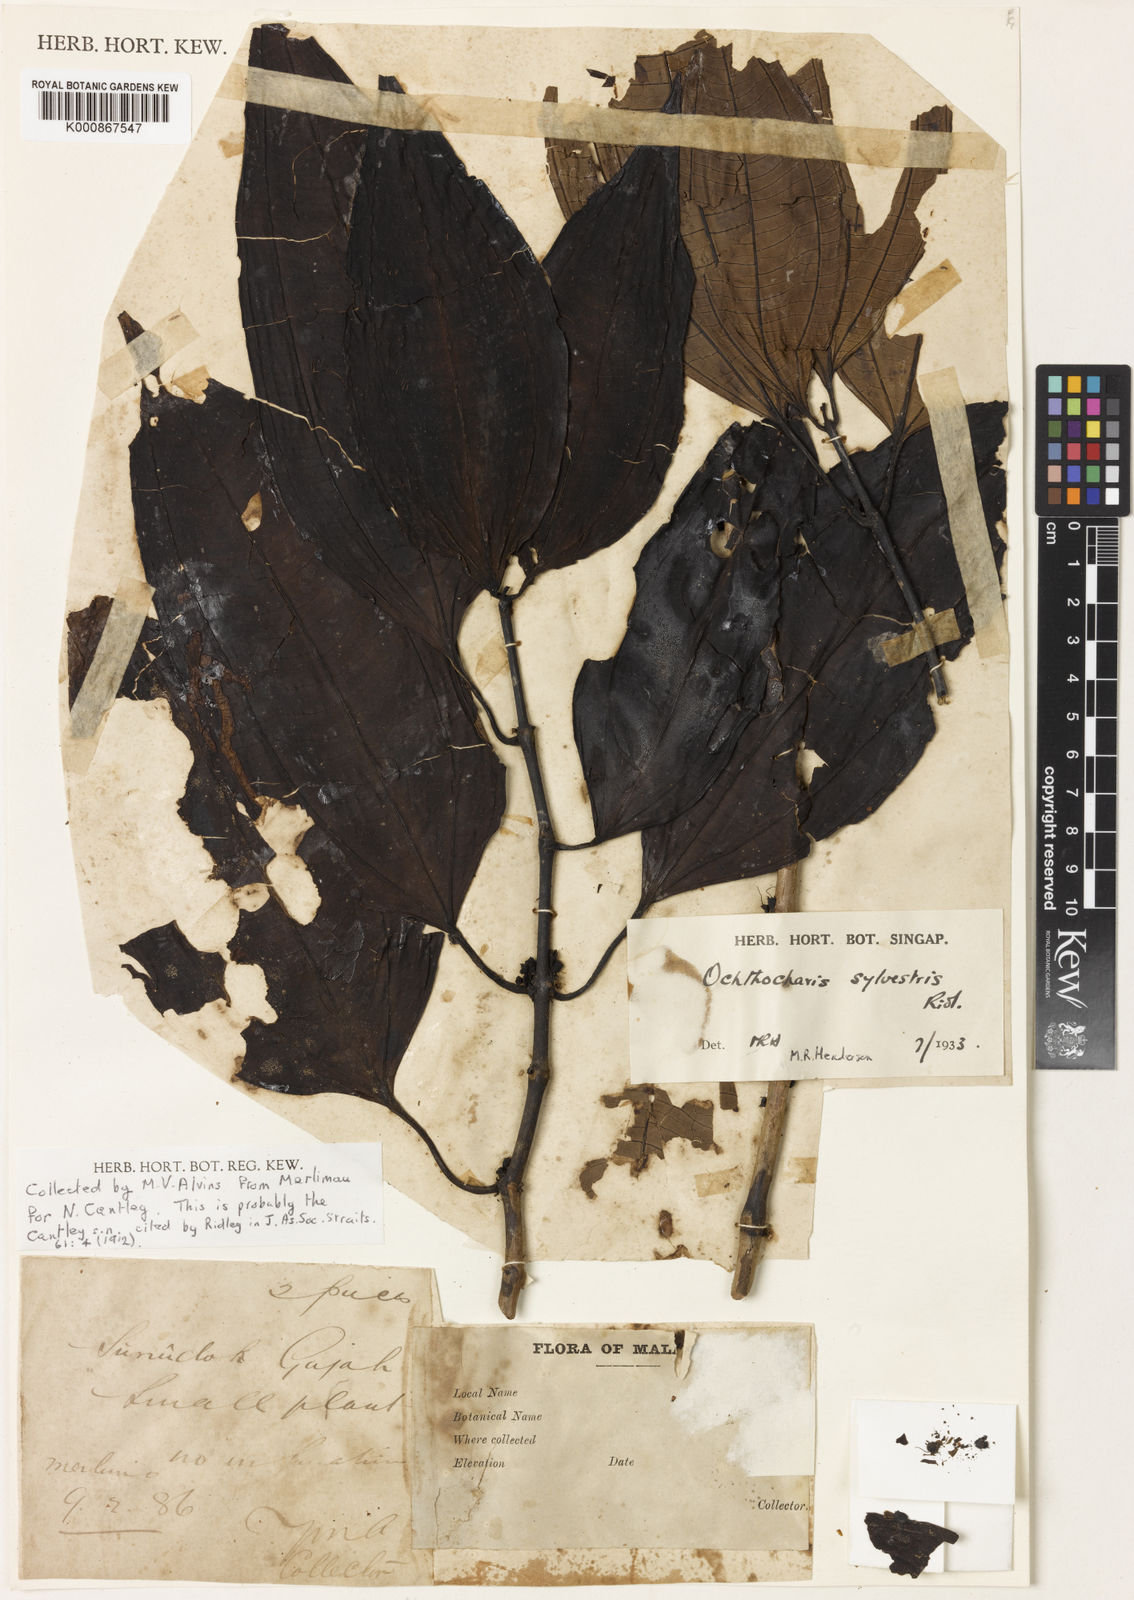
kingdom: Plantae
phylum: Tracheophyta
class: Magnoliopsida
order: Myrtales
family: Melastomataceae
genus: Ochthocharis
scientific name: Ochthocharis decumbens
